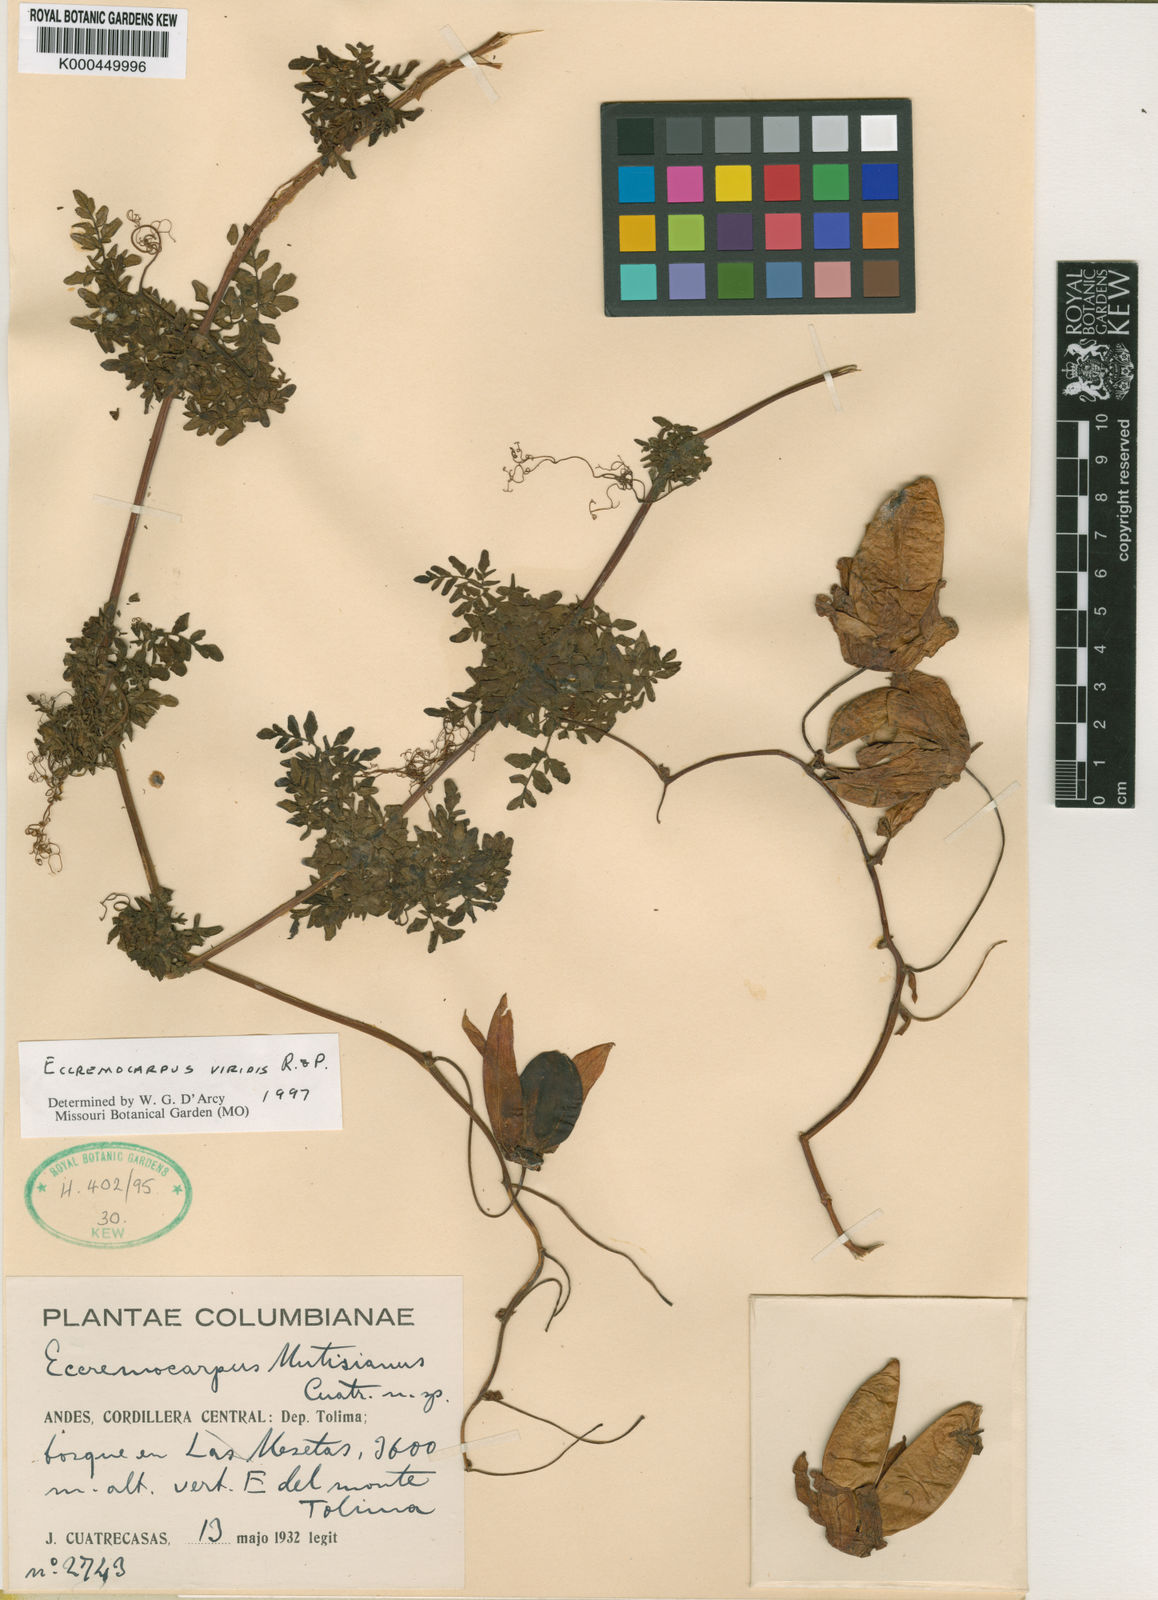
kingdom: Plantae
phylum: Tracheophyta
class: Magnoliopsida
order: Lamiales
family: Bignoniaceae
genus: Eccremocarpus
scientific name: Eccremocarpus viridis
